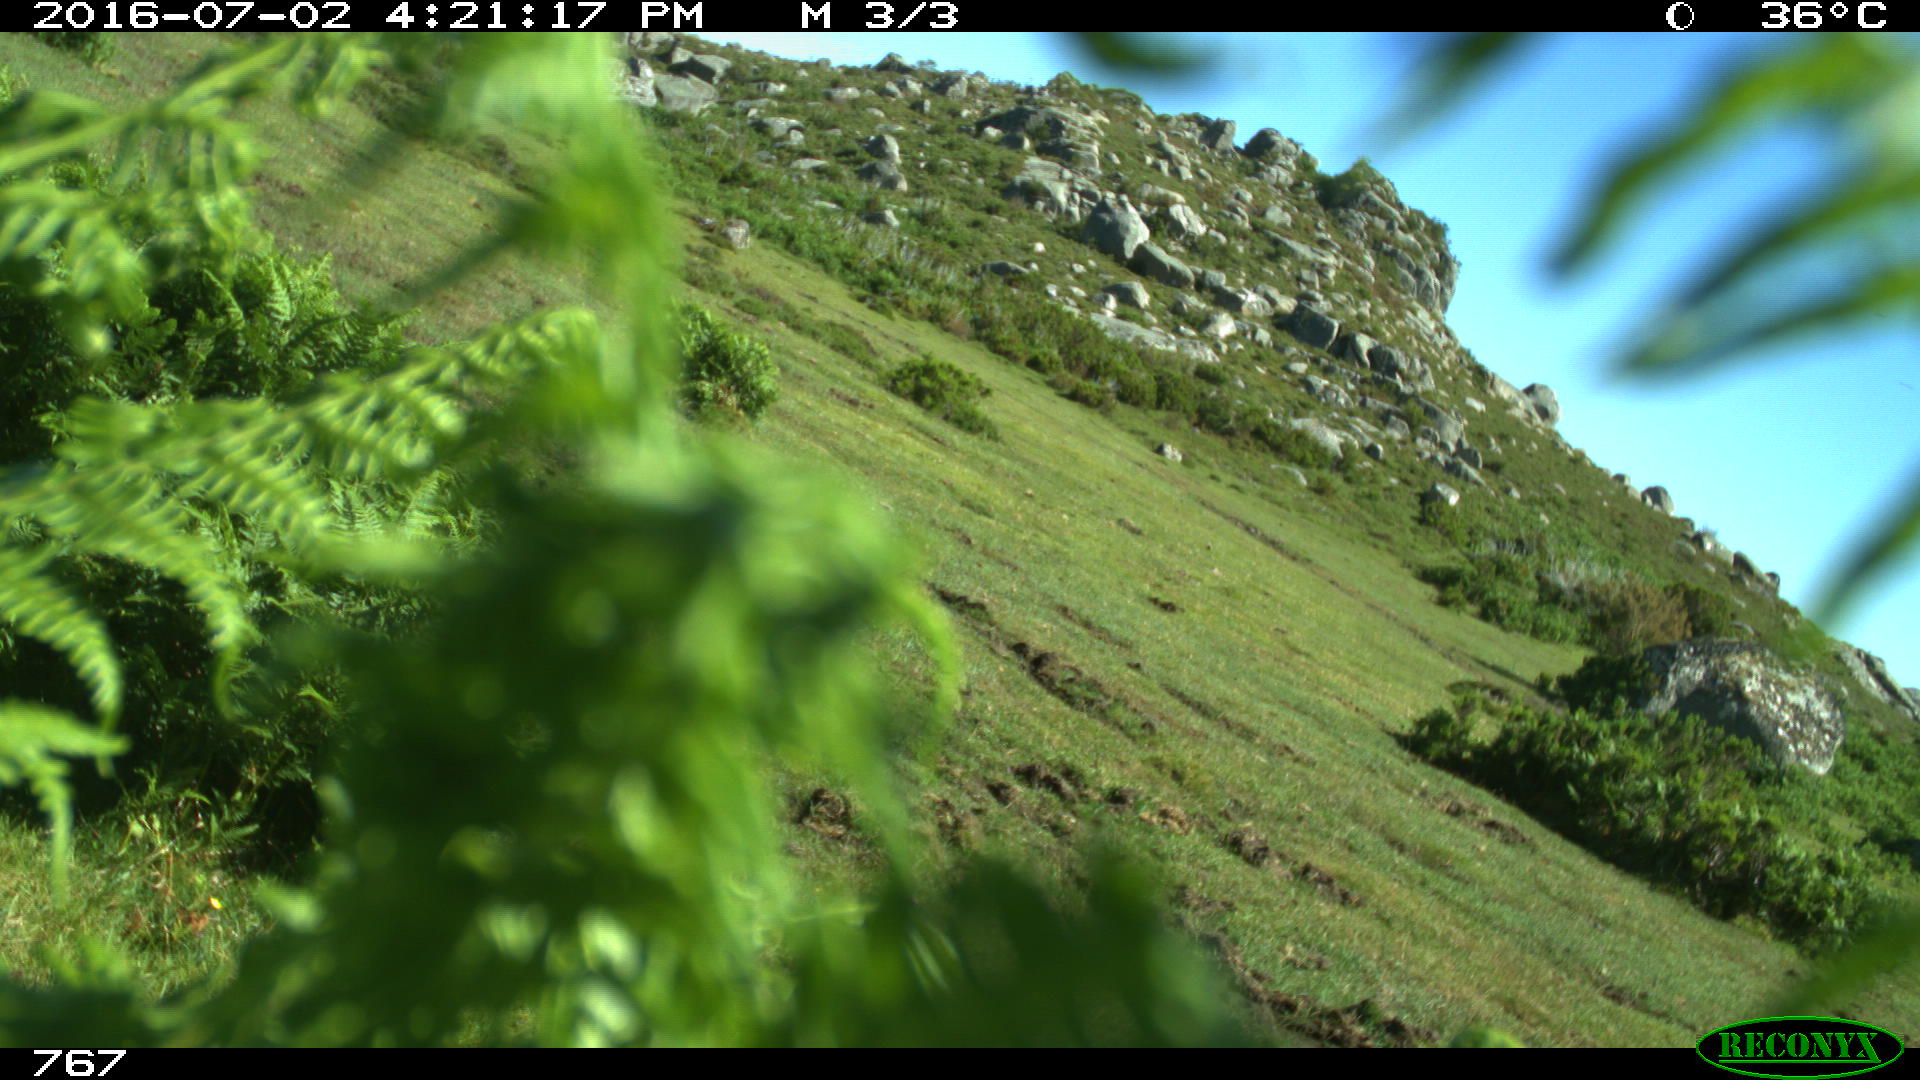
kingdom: Animalia
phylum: Chordata
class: Mammalia
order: Artiodactyla
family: Bovidae
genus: Bos
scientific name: Bos taurus
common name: Domesticated cattle
